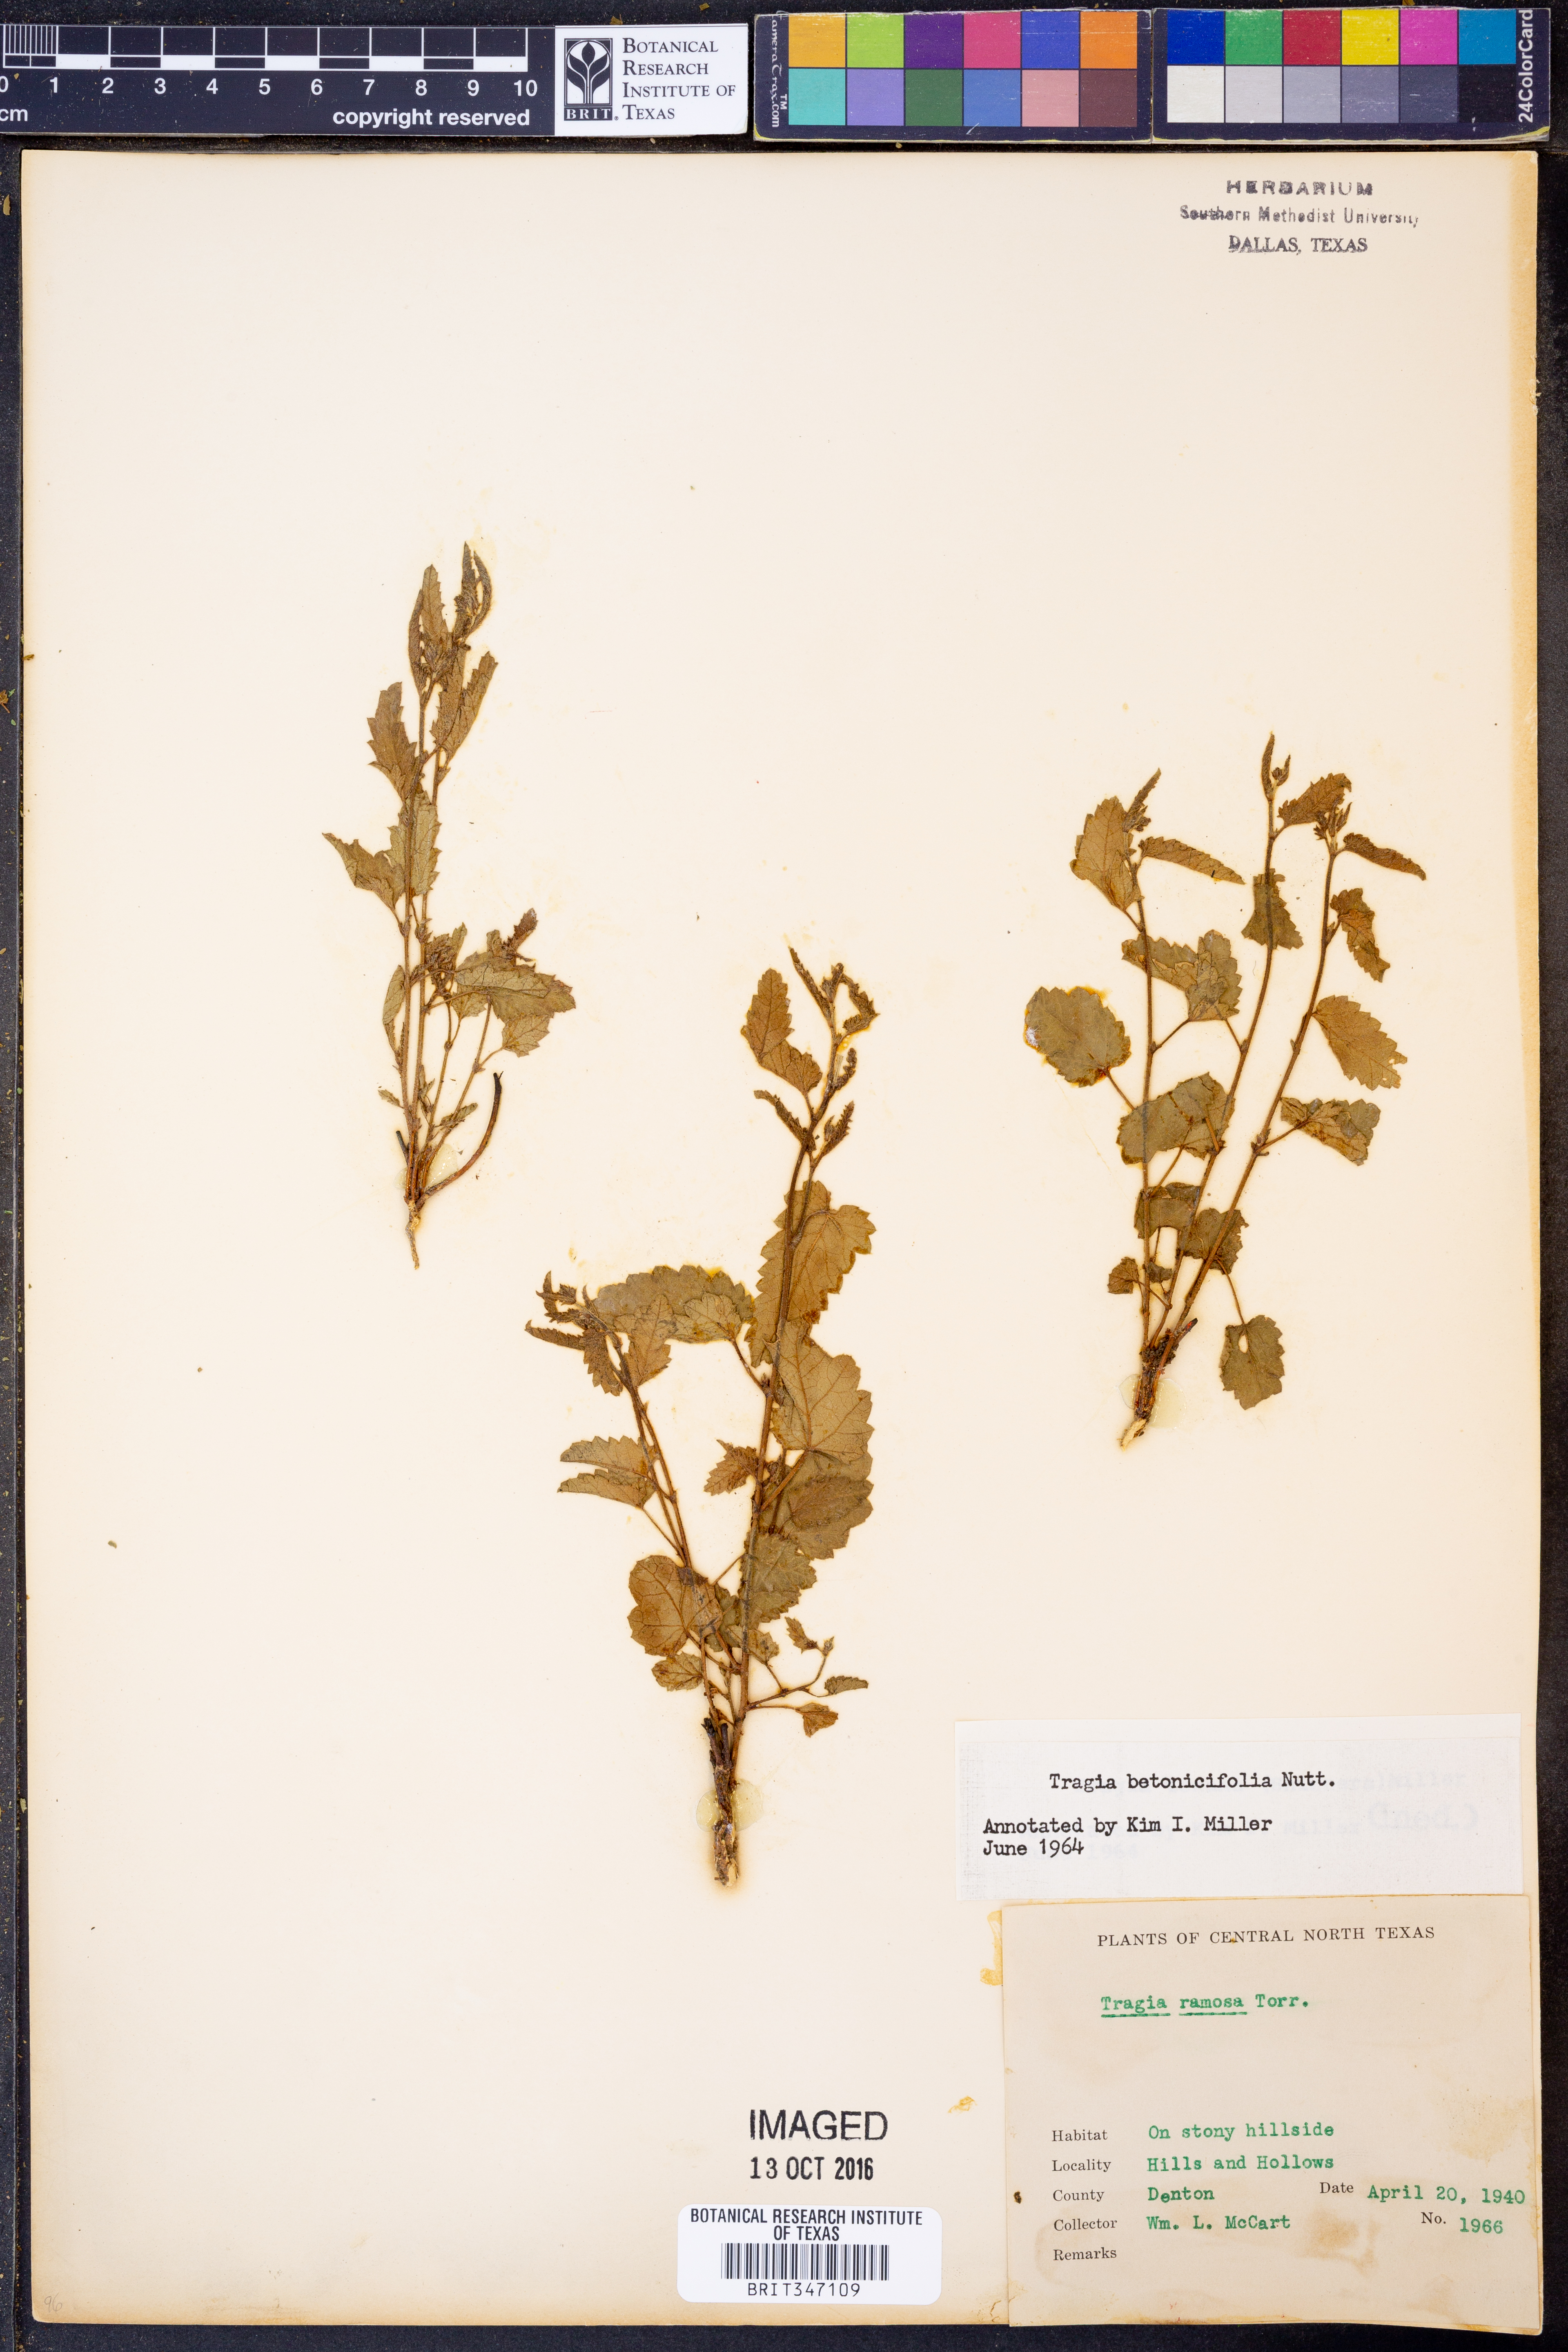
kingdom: Plantae
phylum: Tracheophyta
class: Magnoliopsida
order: Malpighiales
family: Euphorbiaceae
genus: Tragia
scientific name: Tragia betonicifolia
